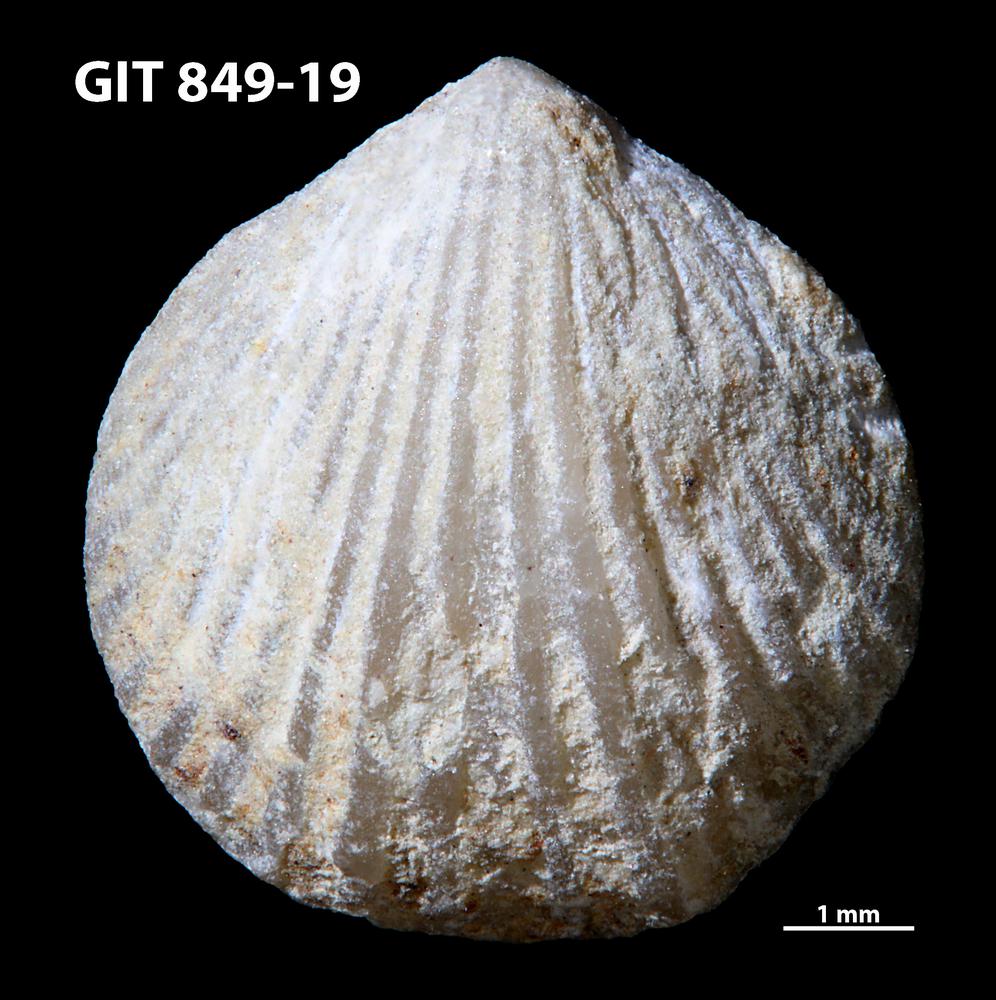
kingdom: Animalia
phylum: Brachiopoda
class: Rhynchonellata
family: Atrypinidae
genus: Clintonella
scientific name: Clintonella
